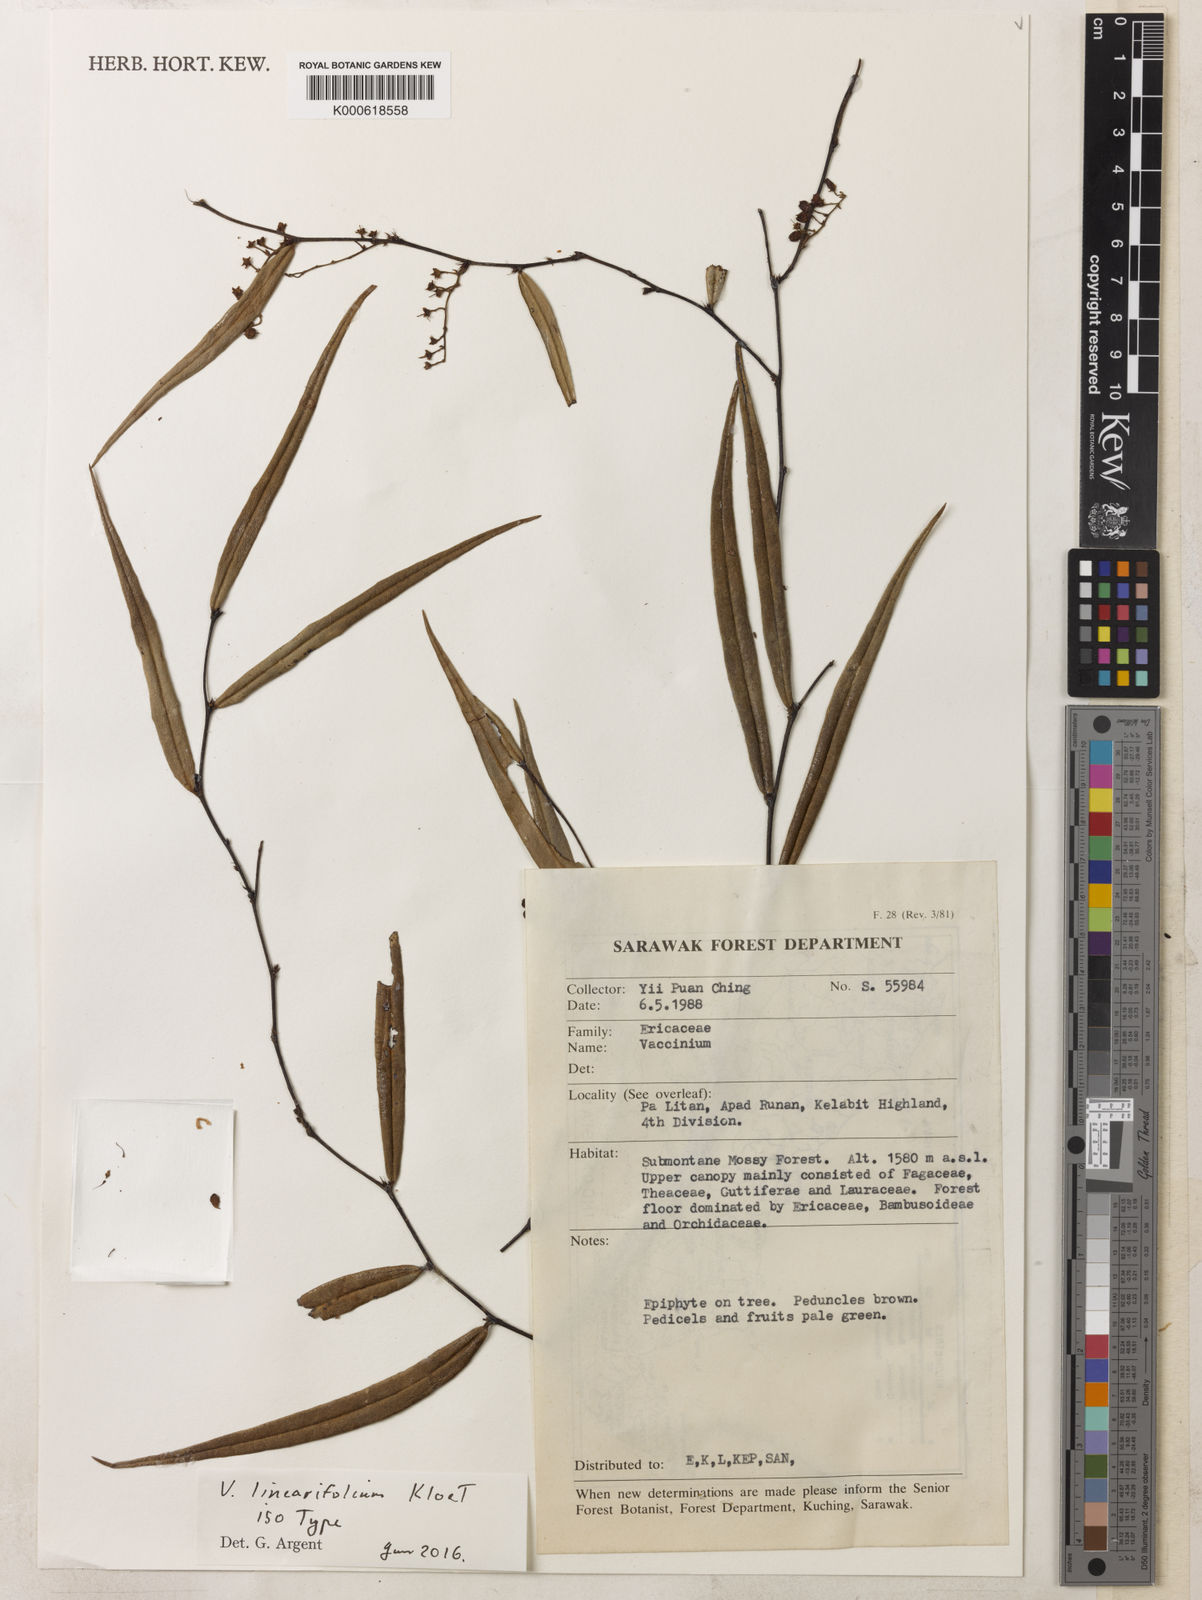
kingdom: Plantae
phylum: Tracheophyta
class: Magnoliopsida
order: Ericales
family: Ericaceae
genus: Rigiolepis
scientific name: Rigiolepis linearifolia
